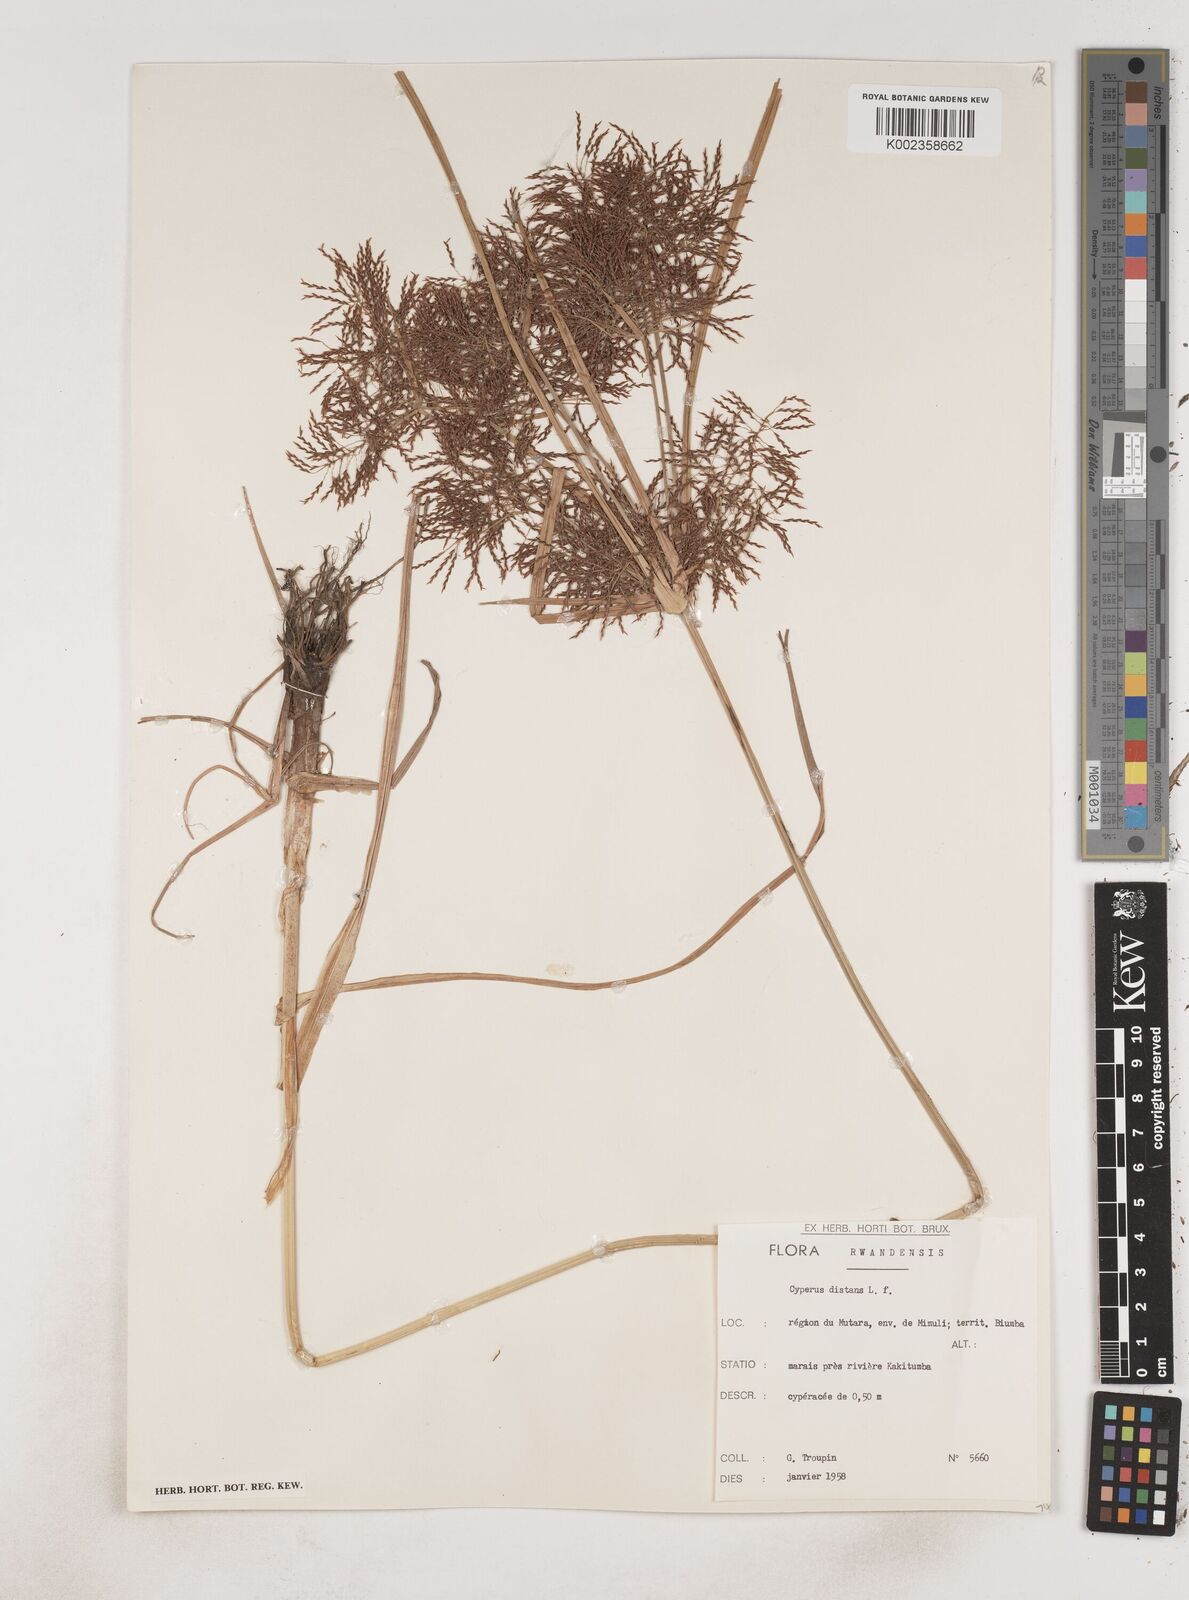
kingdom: Plantae
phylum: Tracheophyta
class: Liliopsida
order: Poales
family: Cyperaceae
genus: Cyperus
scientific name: Cyperus distans
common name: Slender cyperus
